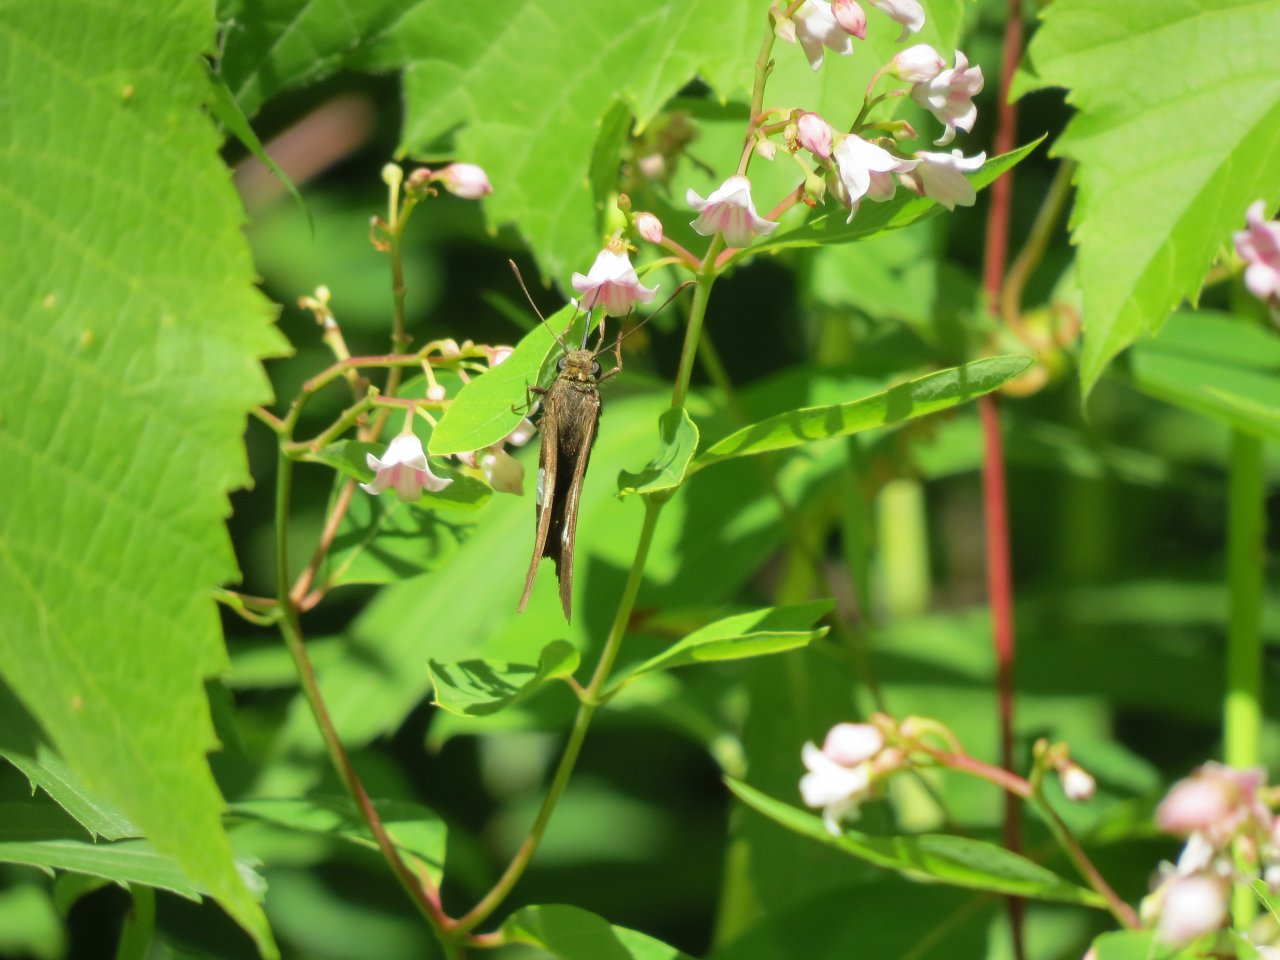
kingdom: Animalia
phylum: Arthropoda
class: Insecta
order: Lepidoptera
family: Hesperiidae
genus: Epargyreus
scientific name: Epargyreus clarus
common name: Silver-spotted Skipper
